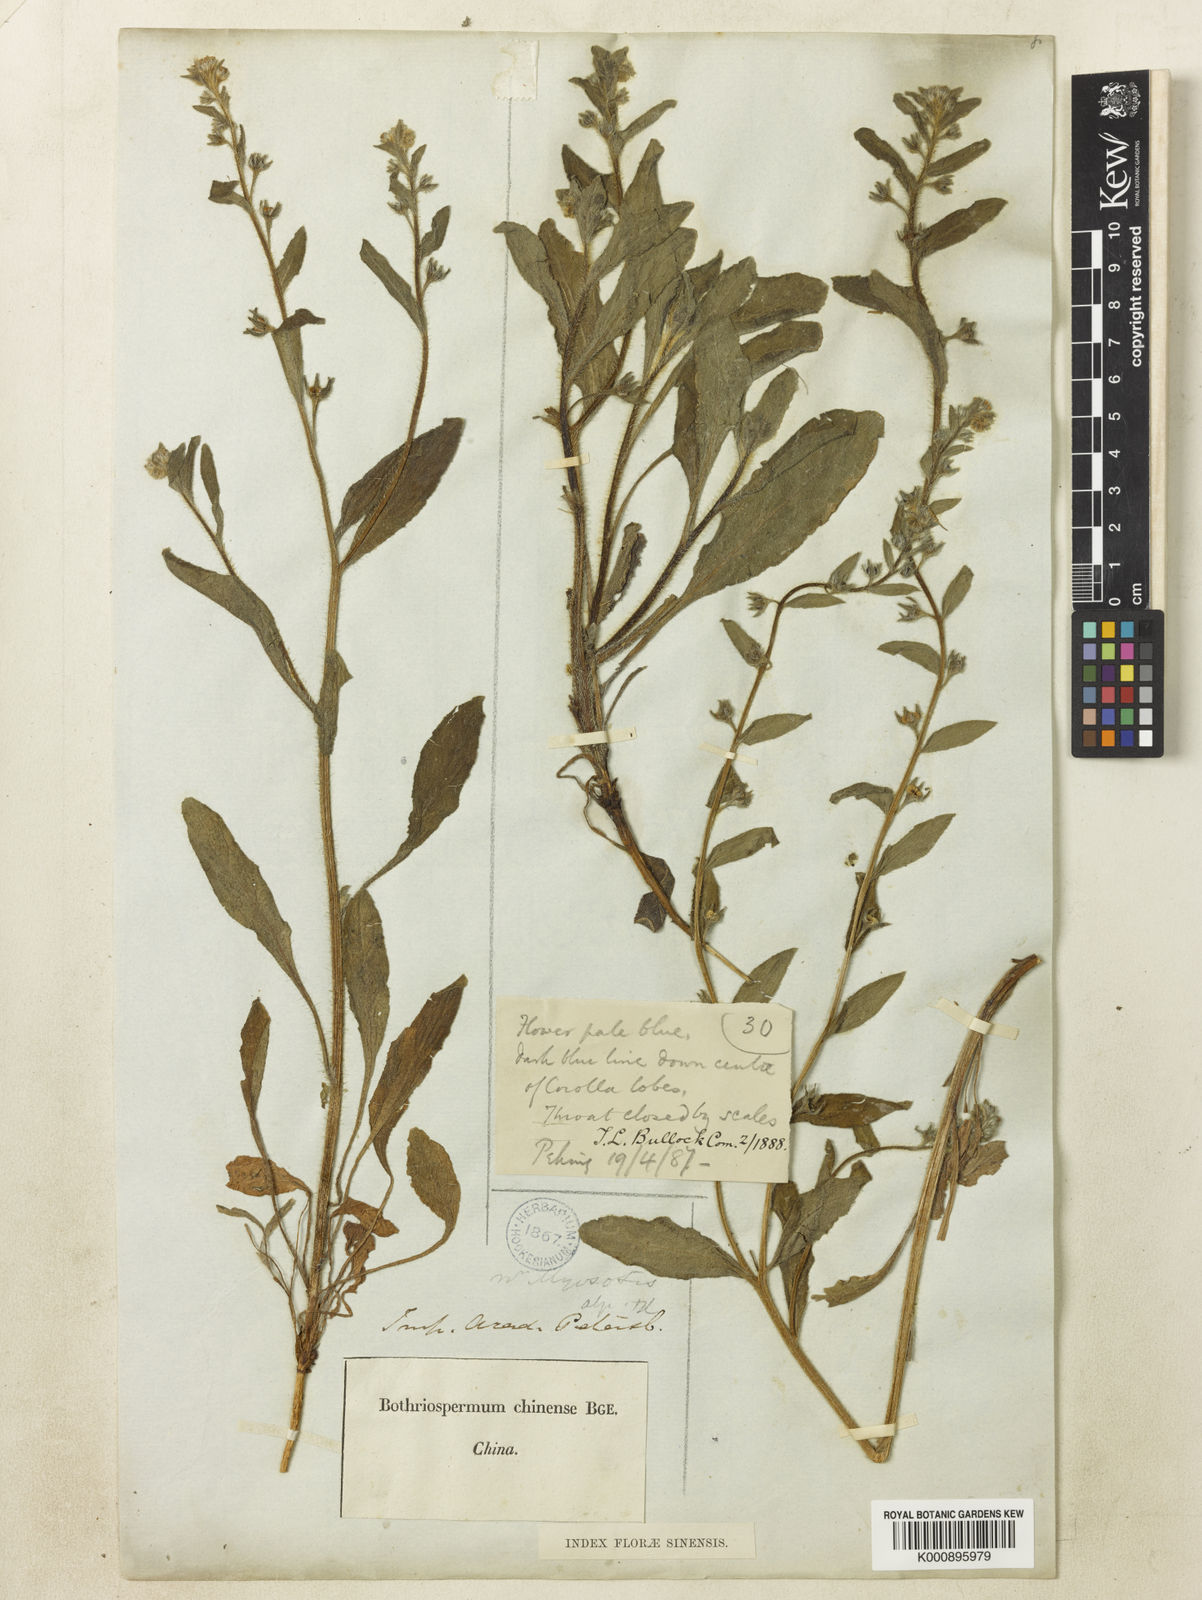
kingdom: Plantae
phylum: Tracheophyta
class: Magnoliopsida
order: Boraginales
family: Boraginaceae
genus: Bothriospermum
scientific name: Bothriospermum chinense
